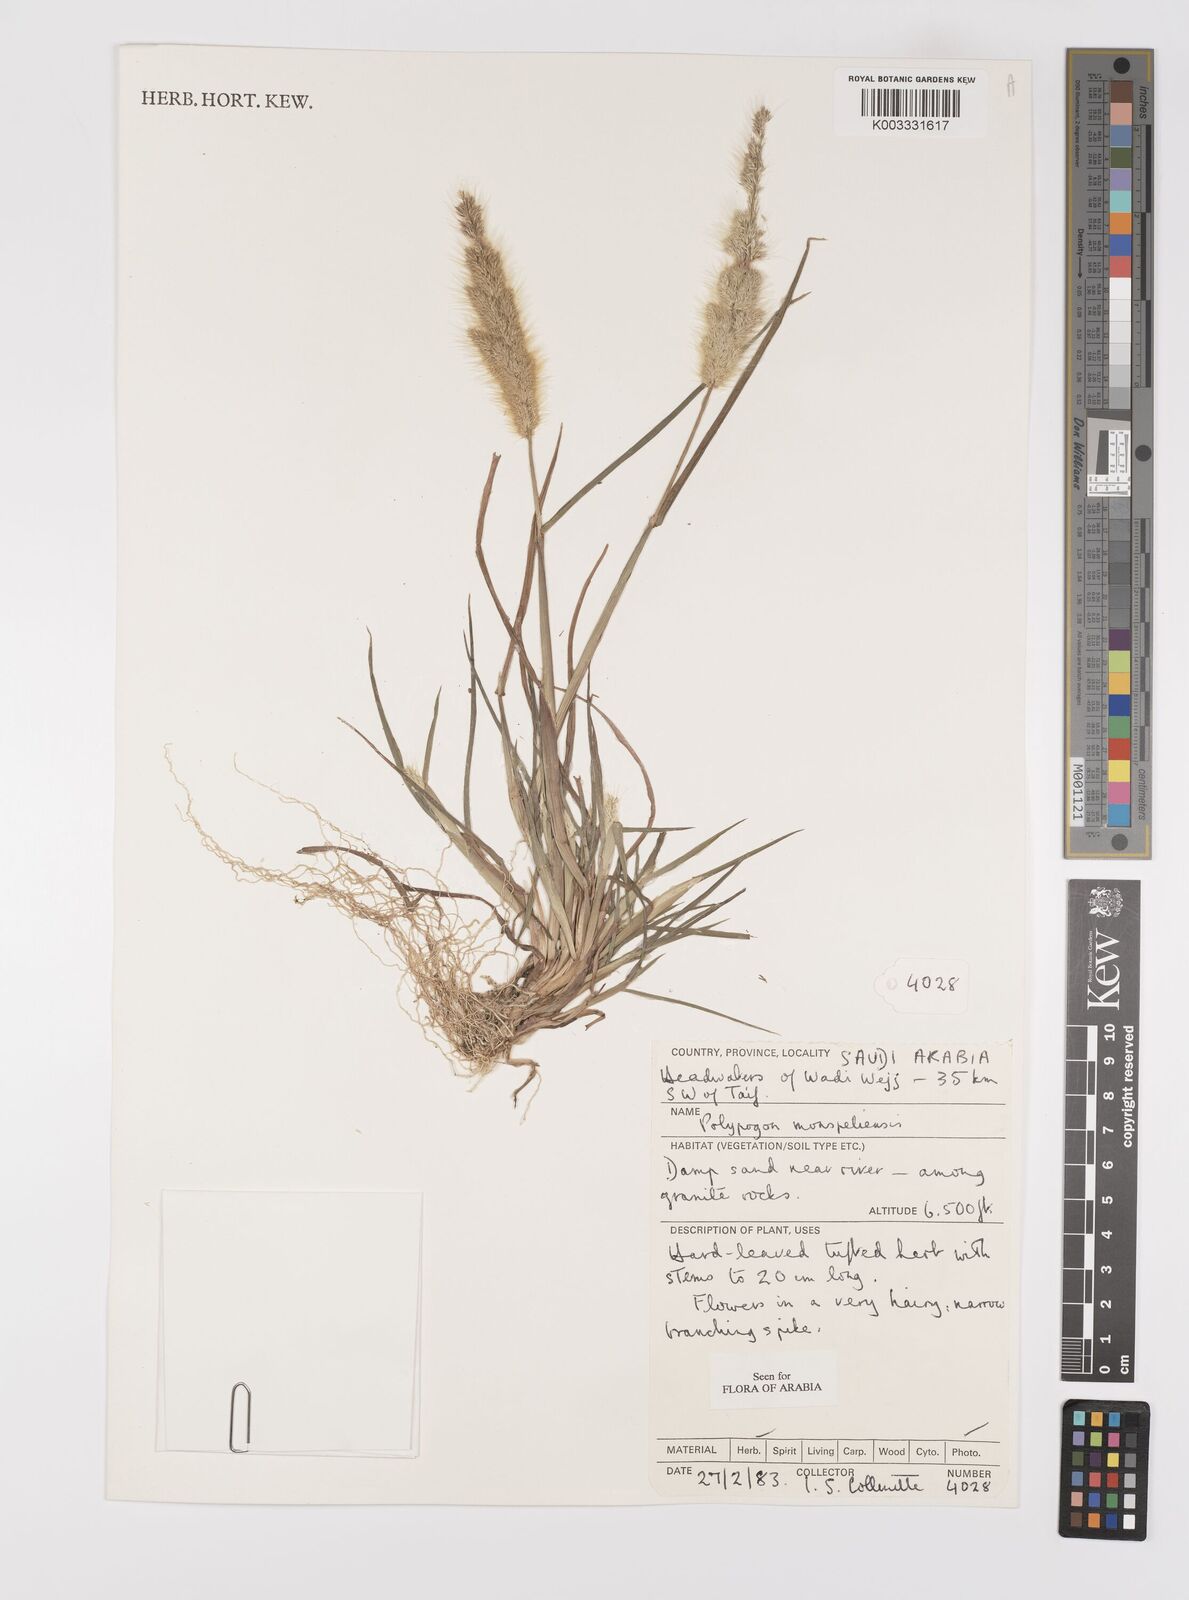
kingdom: Plantae
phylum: Tracheophyta
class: Liliopsida
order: Poales
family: Poaceae
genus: Polypogon
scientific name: Polypogon monspeliensis
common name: Annual rabbitsfoot grass
